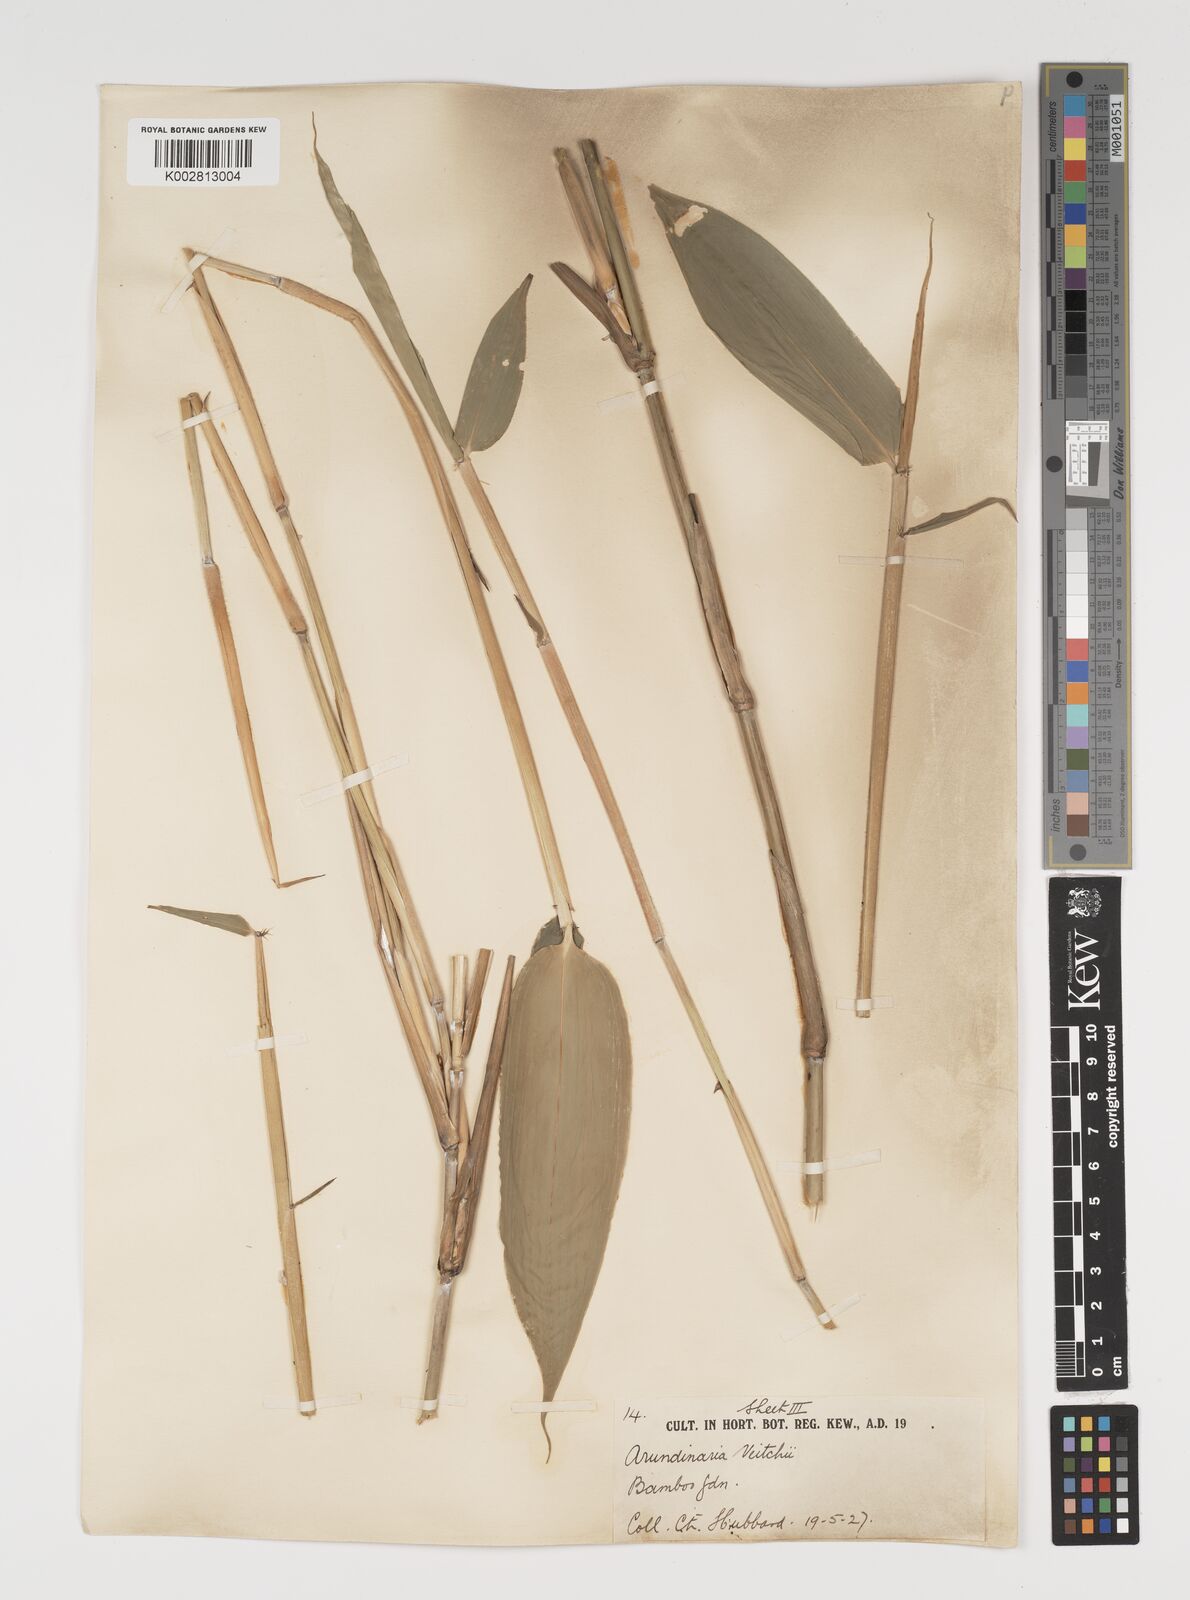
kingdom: Plantae
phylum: Tracheophyta
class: Liliopsida
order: Poales
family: Poaceae
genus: Sasa
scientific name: Sasa veitchii
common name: Veitch's bamboo
